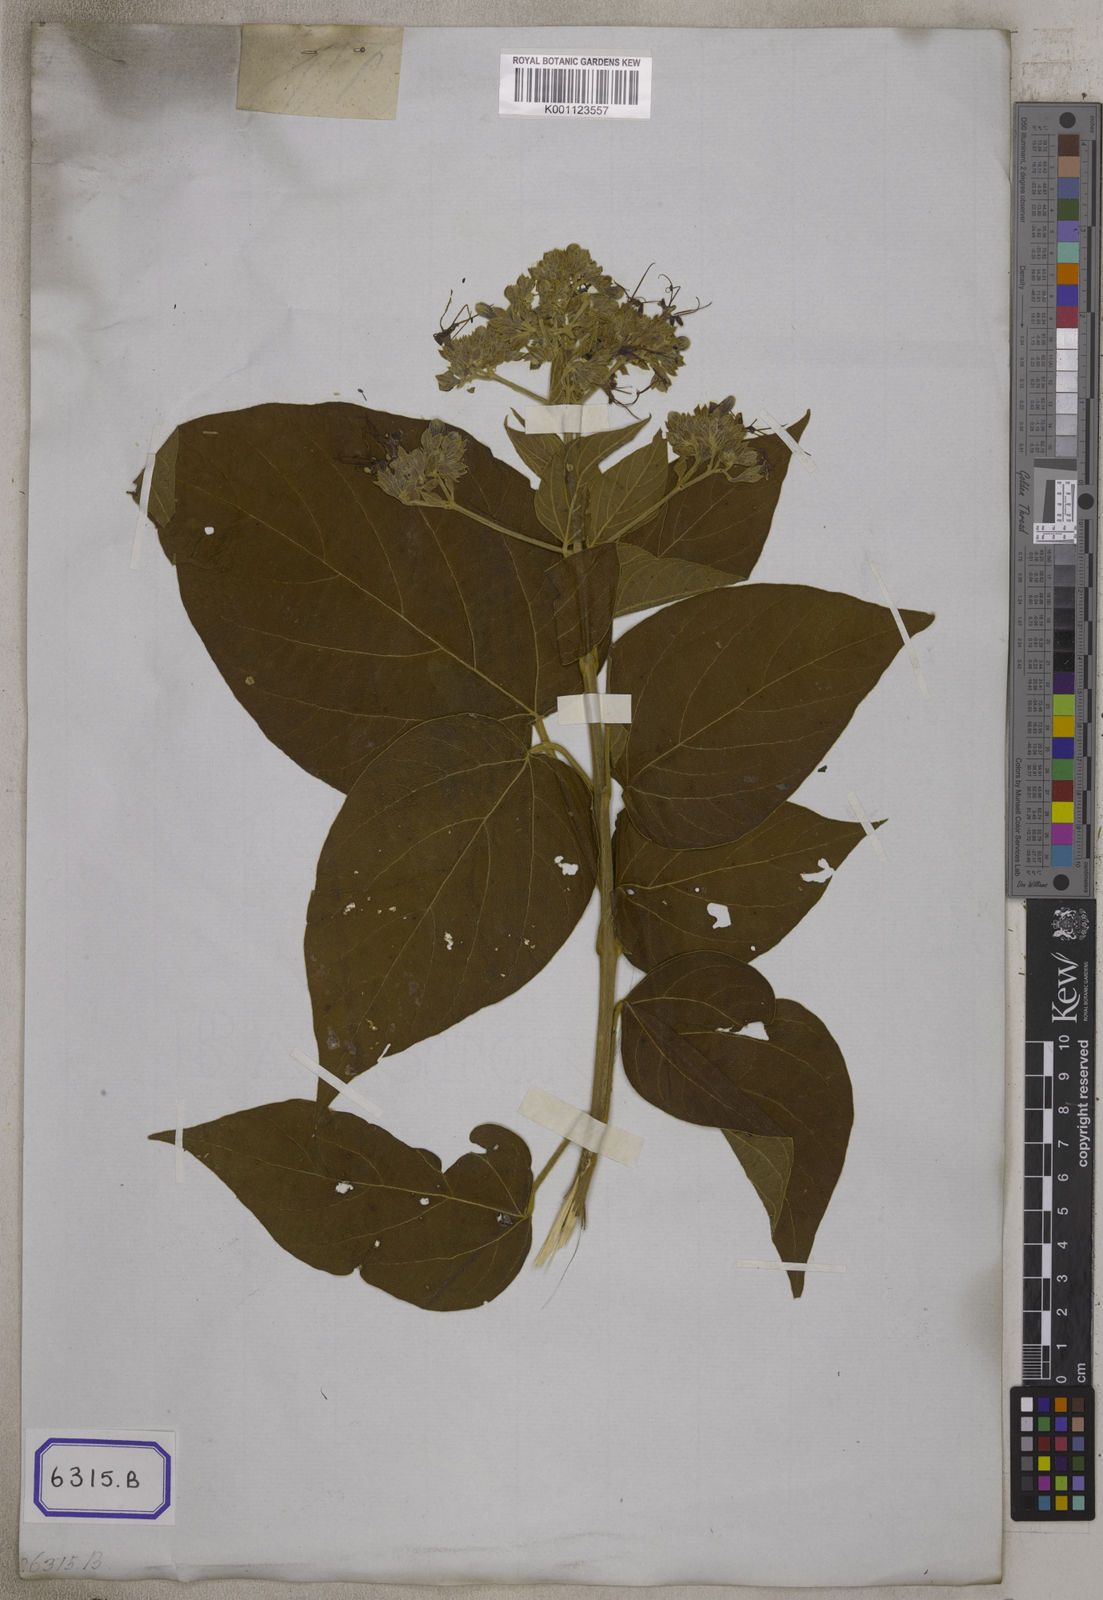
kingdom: Plantae
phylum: Tracheophyta
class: Magnoliopsida
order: Lamiales
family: Lamiaceae
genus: Clerodendrum
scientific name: Clerodendrum
